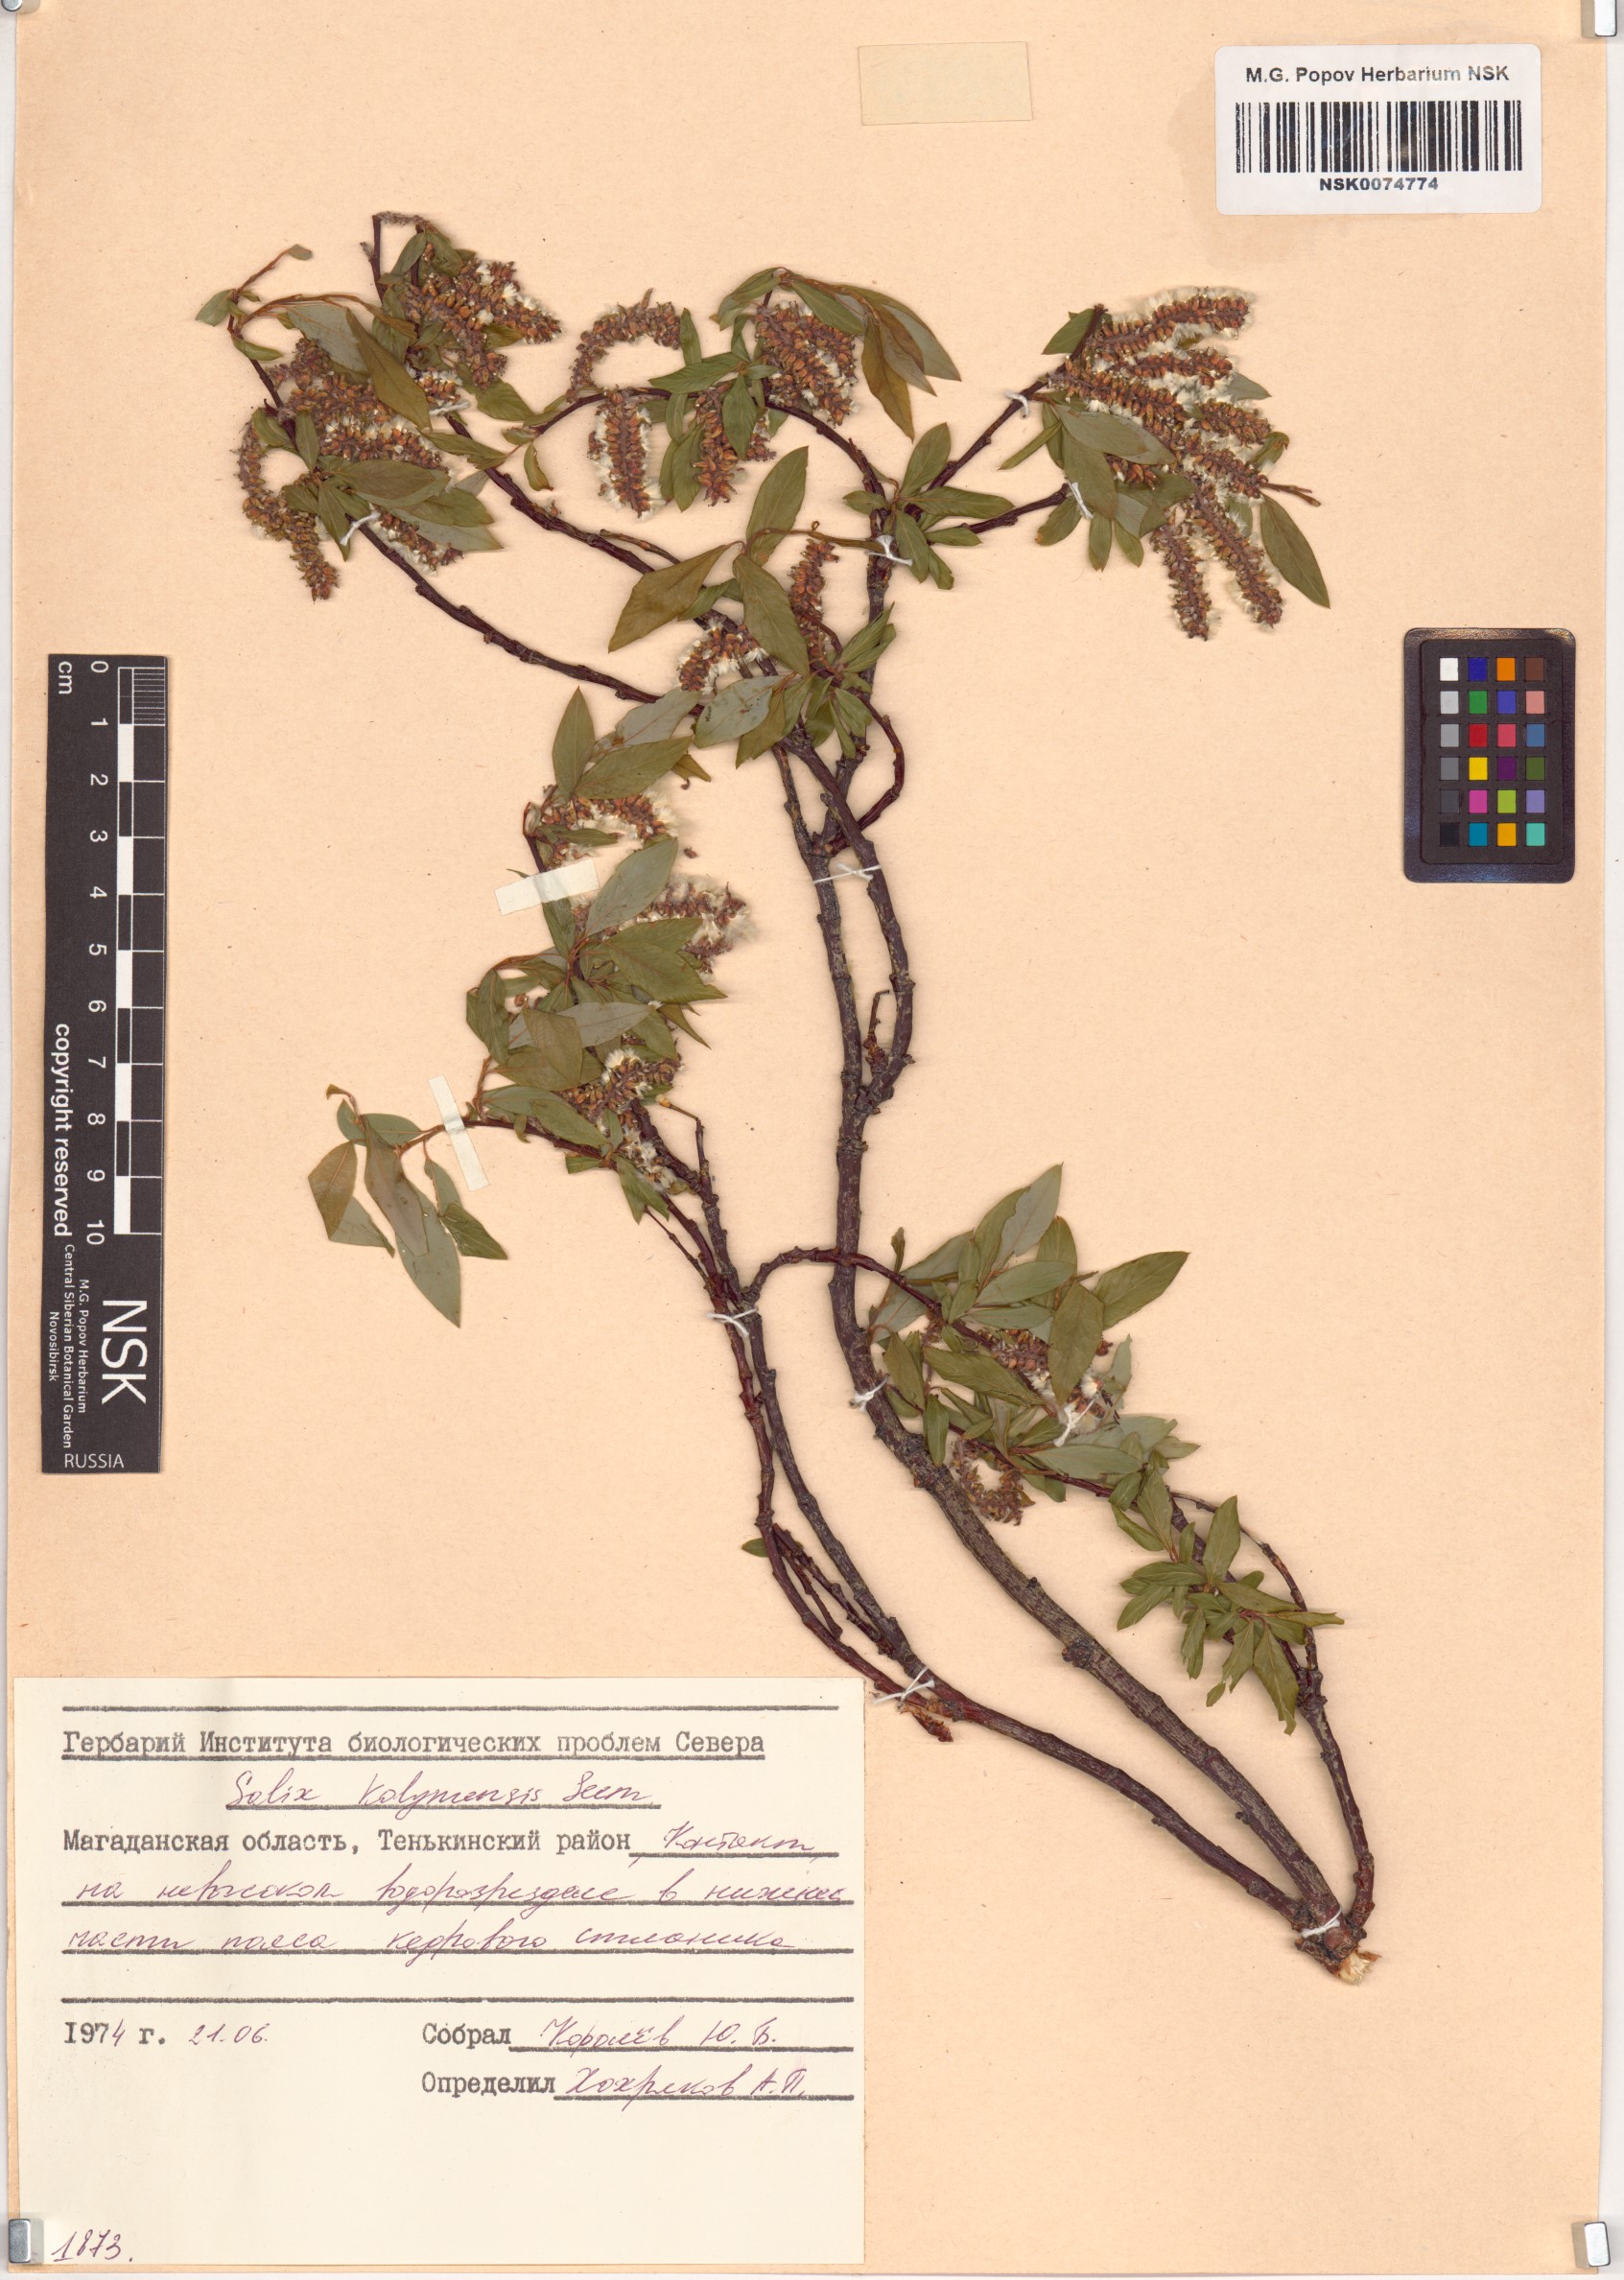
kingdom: Plantae
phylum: Tracheophyta
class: Magnoliopsida
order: Malpighiales
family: Salicaceae
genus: Salix
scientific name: Salix boganidensis
